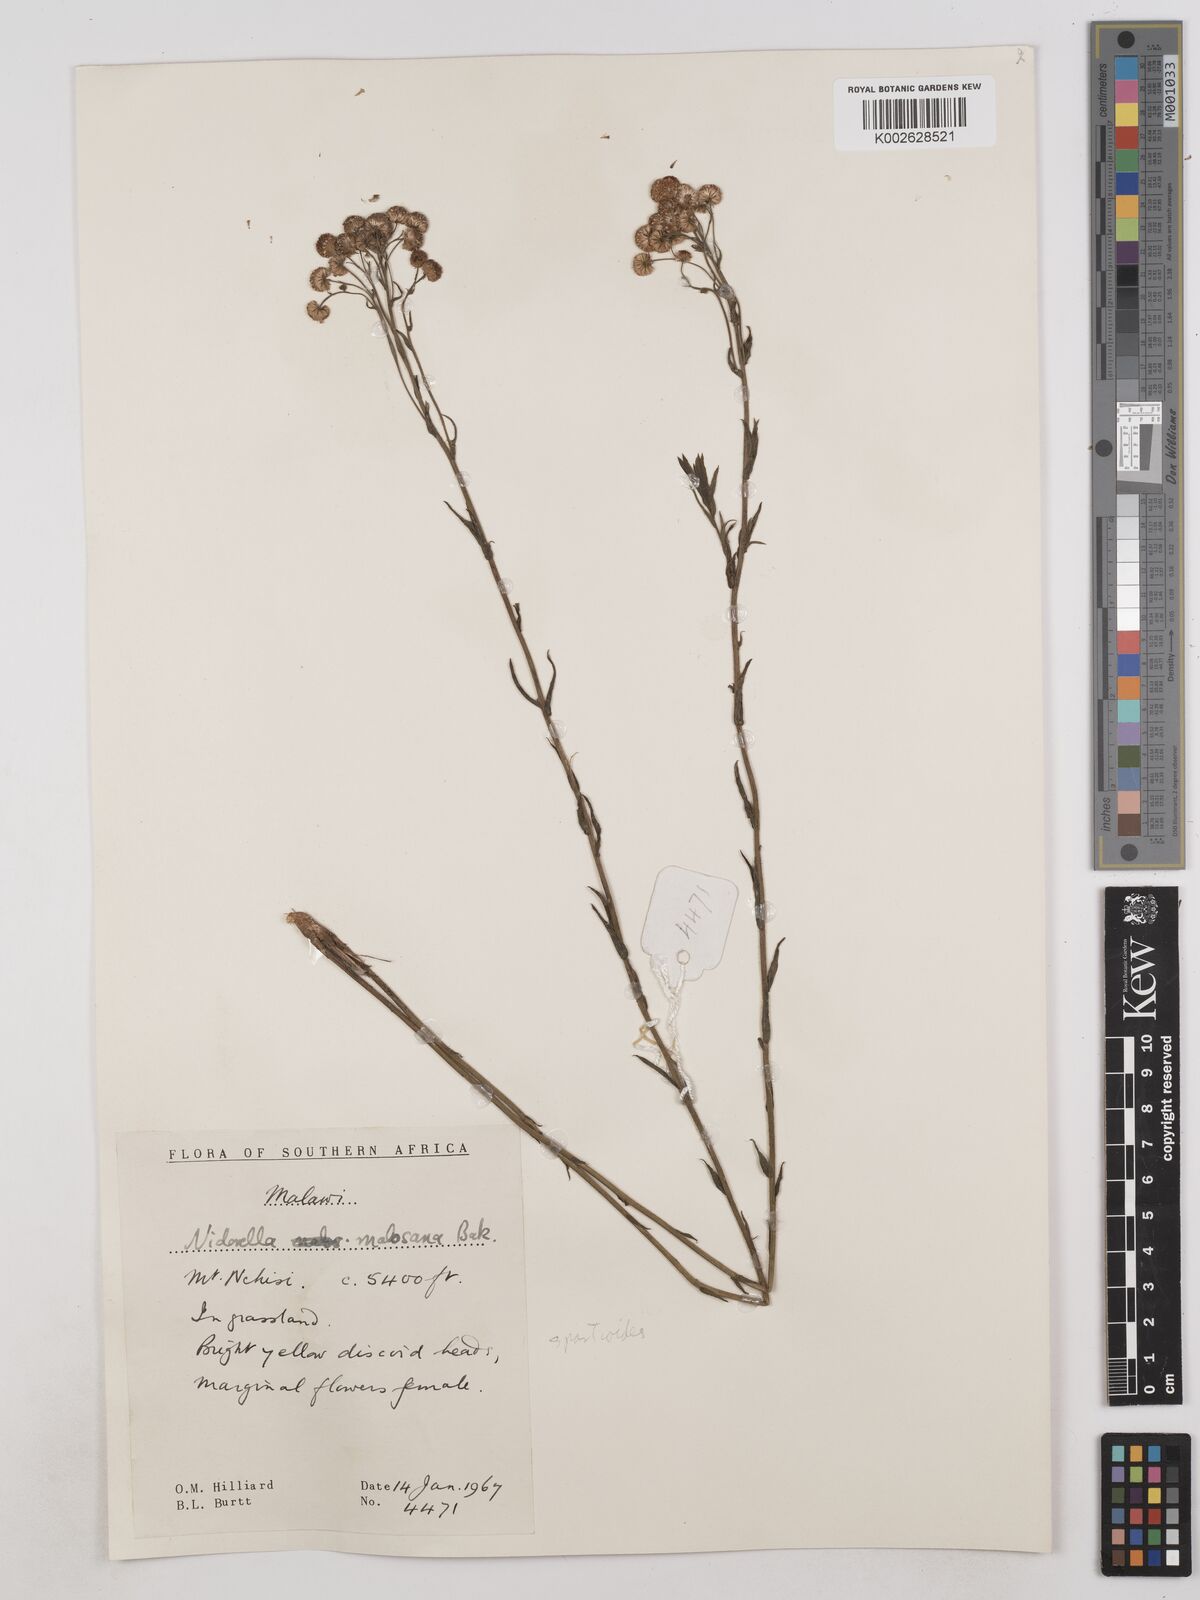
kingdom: Plantae
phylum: Tracheophyta
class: Magnoliopsida
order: Asterales
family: Asteraceae
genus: Nidorella
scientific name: Nidorella spartioides
